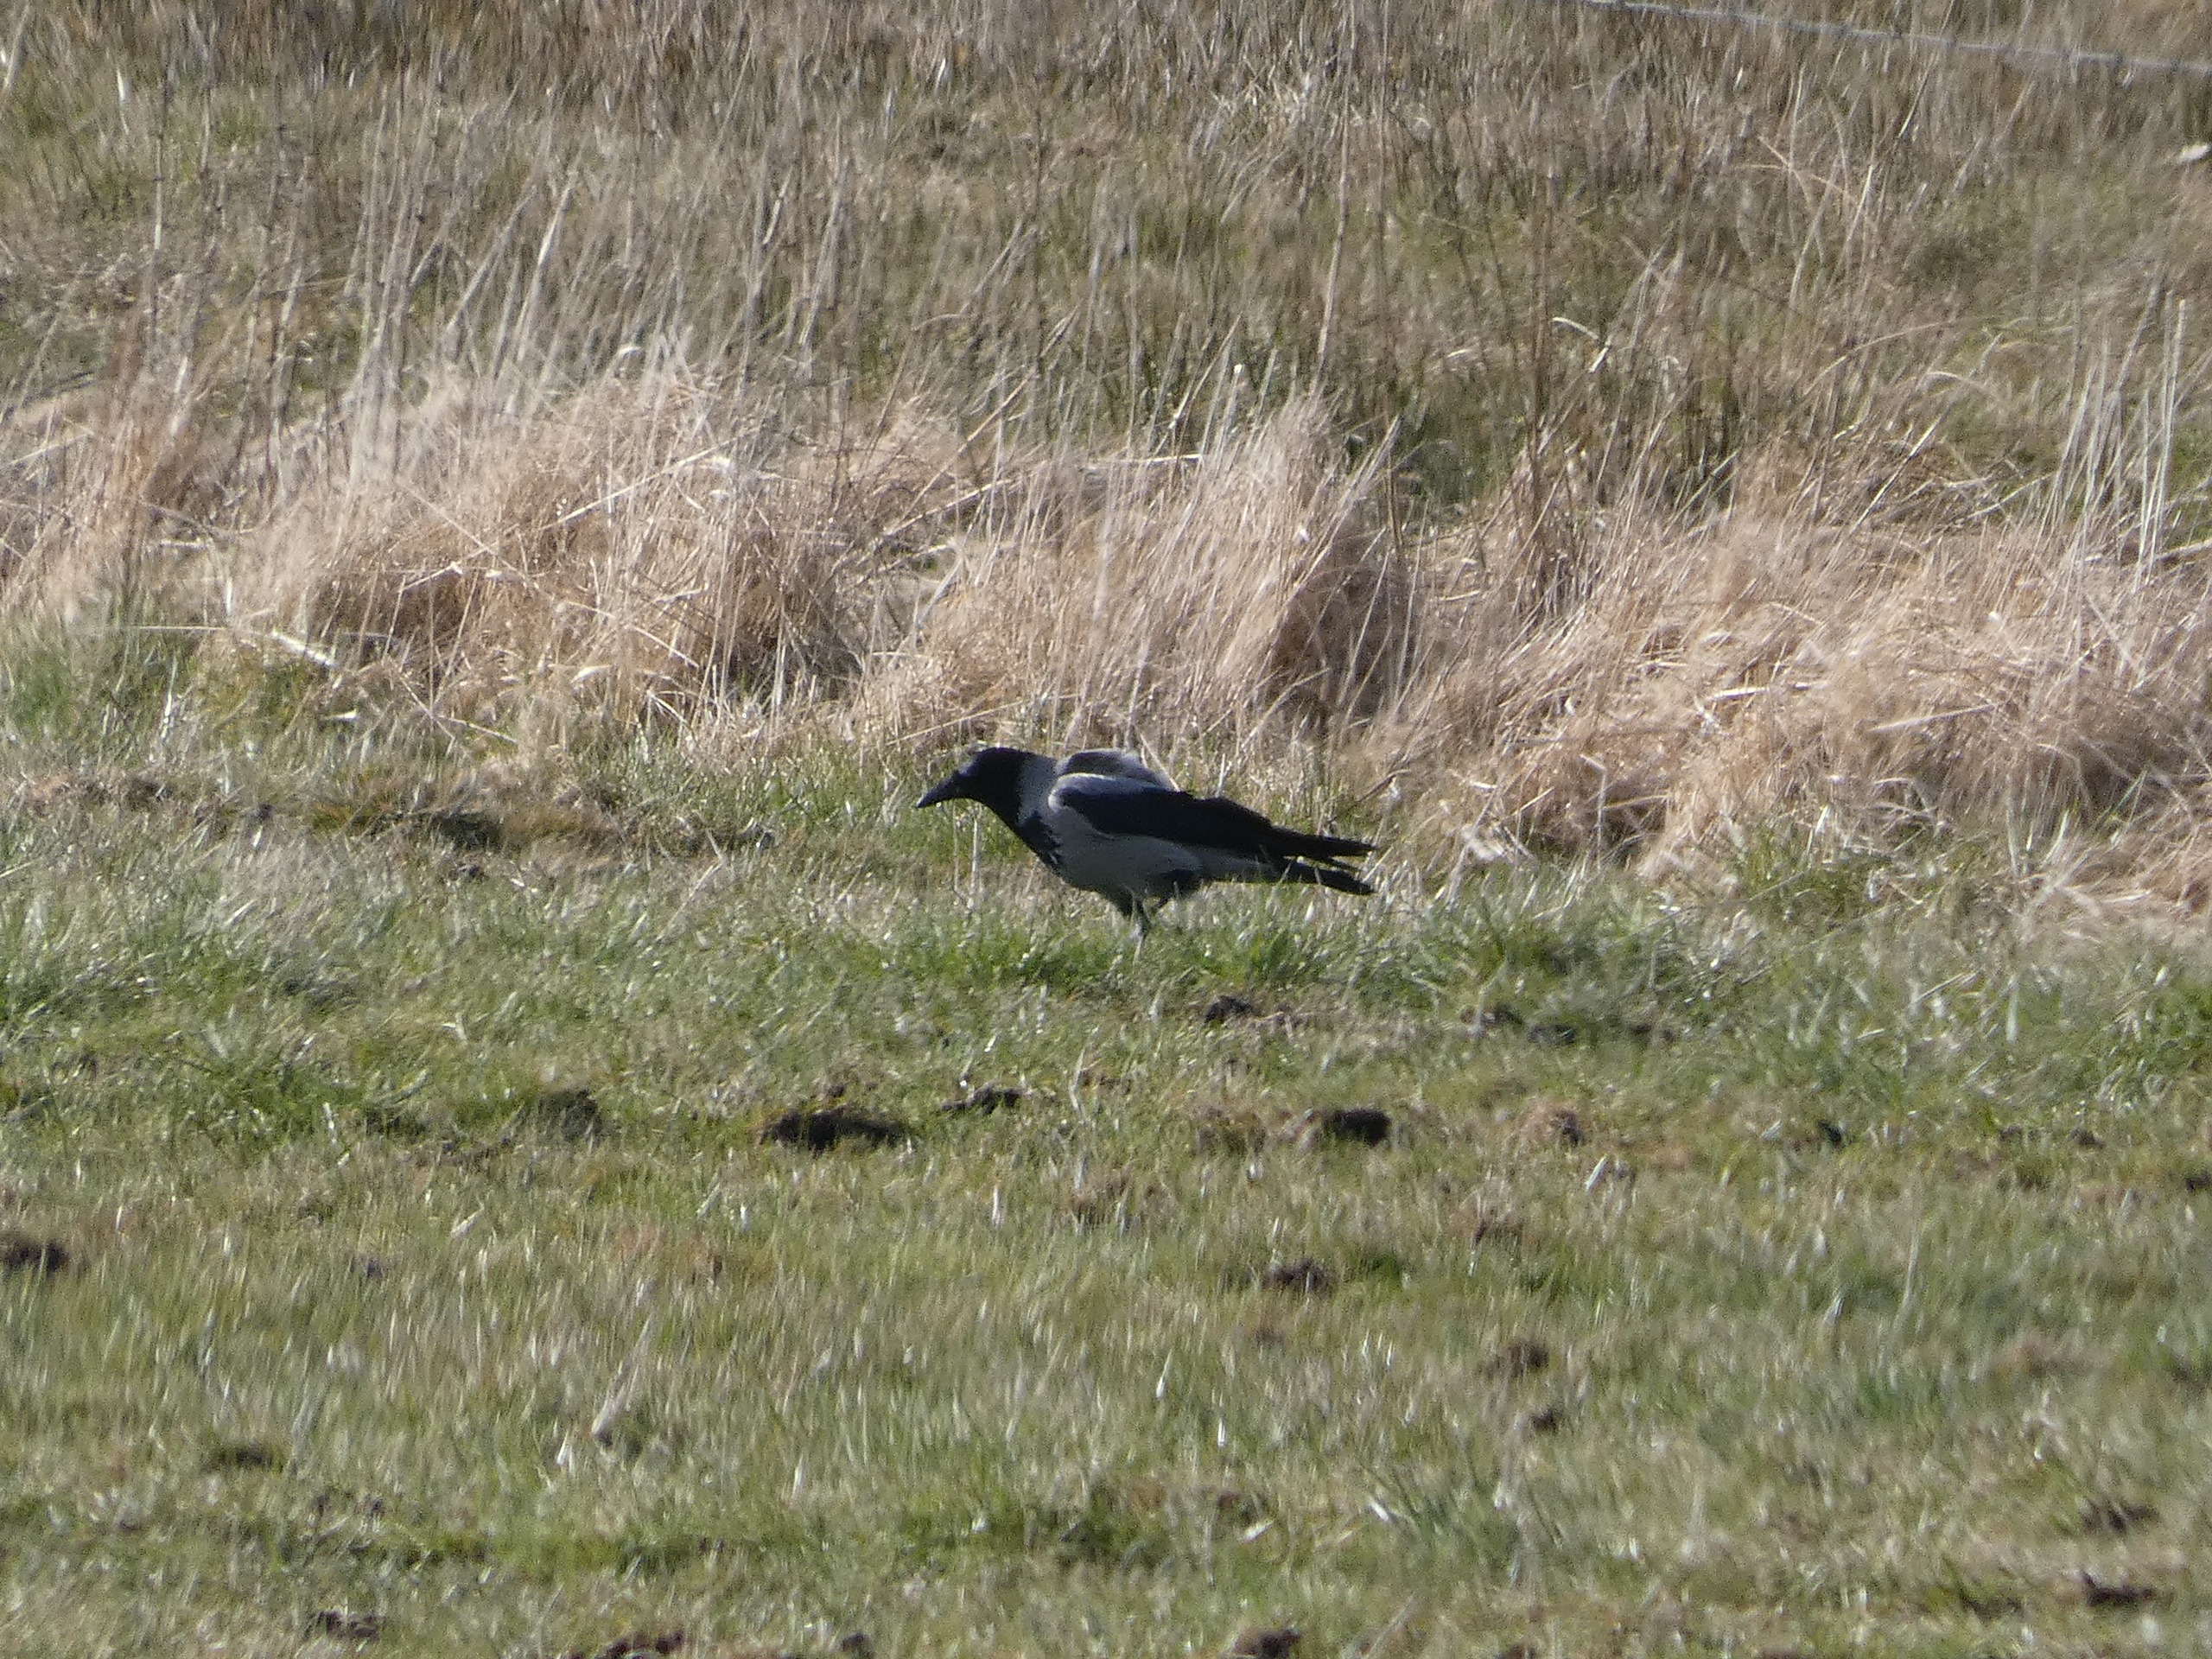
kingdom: Animalia
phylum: Chordata
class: Aves
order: Passeriformes
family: Corvidae
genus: Corvus
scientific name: Corvus cornix
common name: Gråkrage
